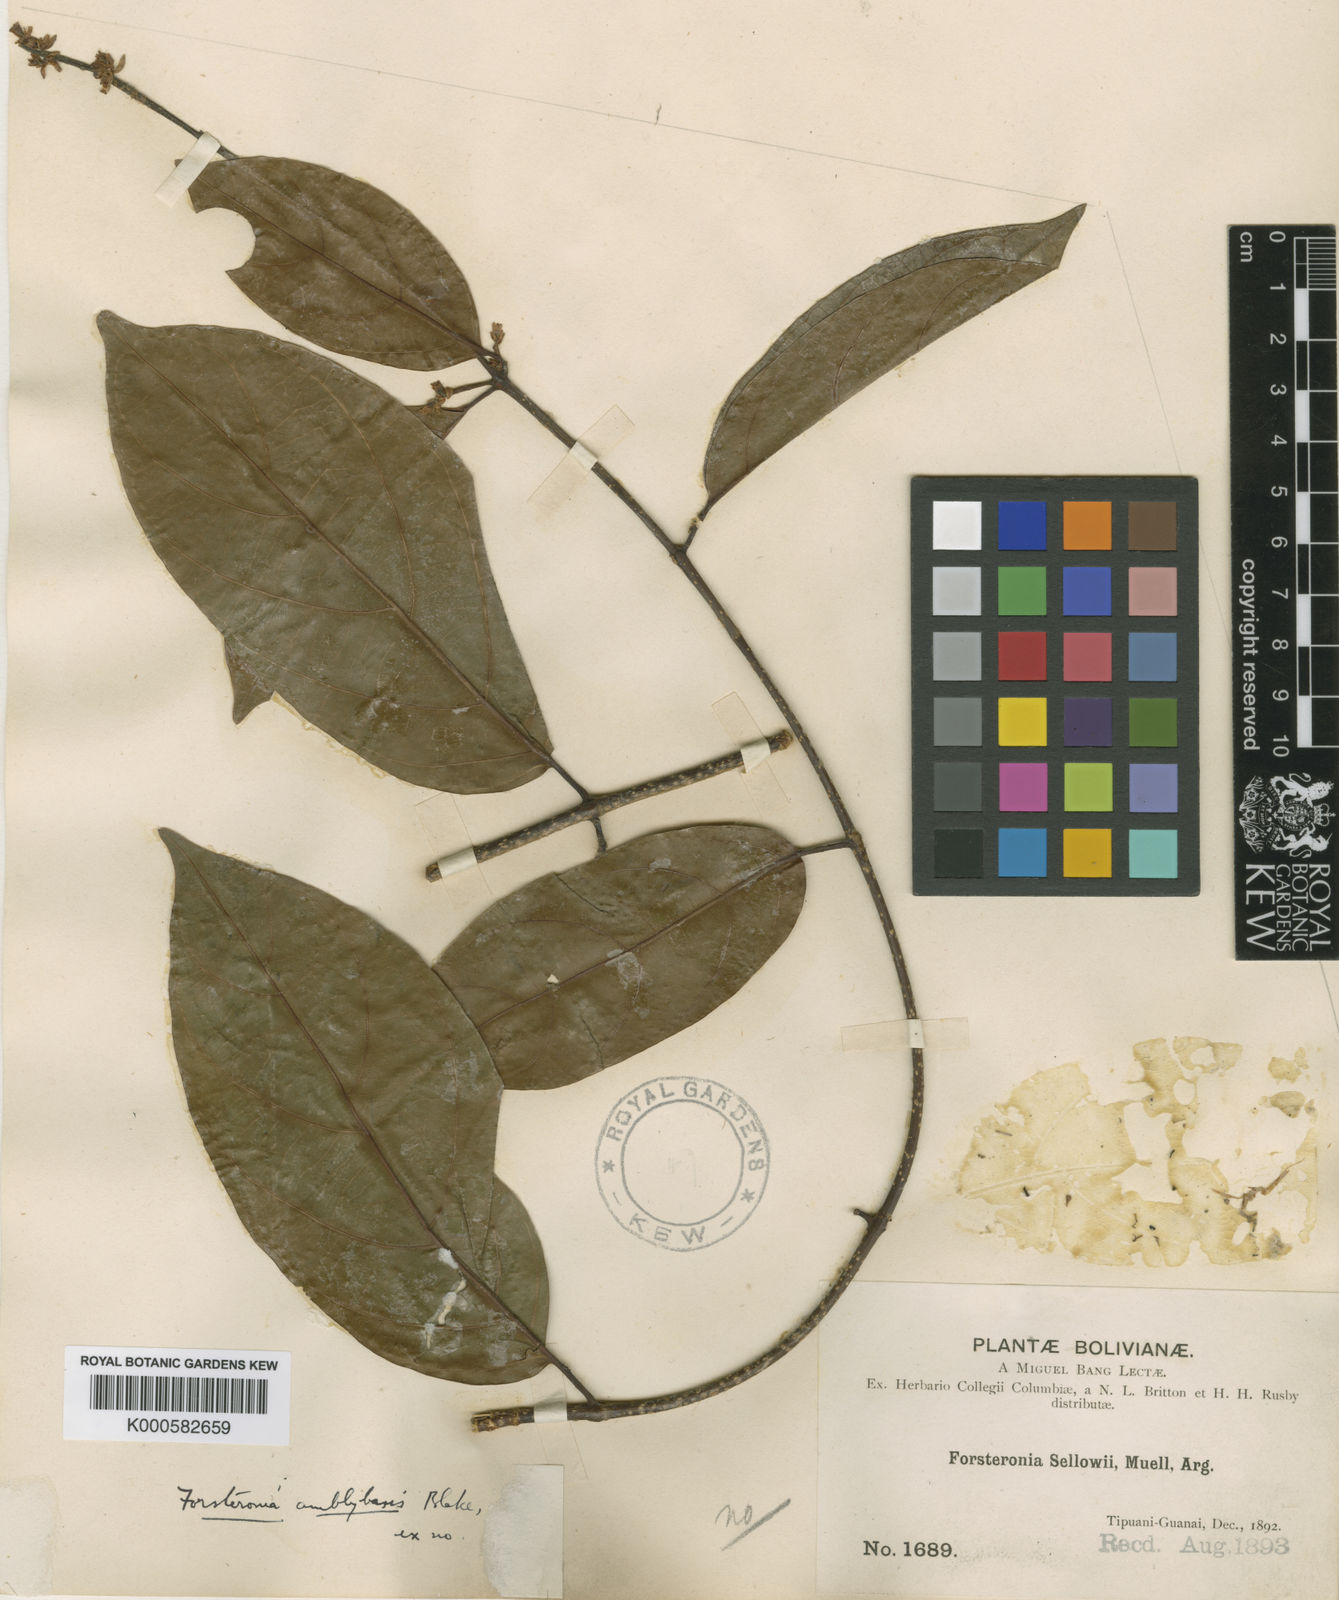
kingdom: Plantae
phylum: Tracheophyta
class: Magnoliopsida
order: Gentianales
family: Apocynaceae
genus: Forsteronia
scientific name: Forsteronia amblybasis
